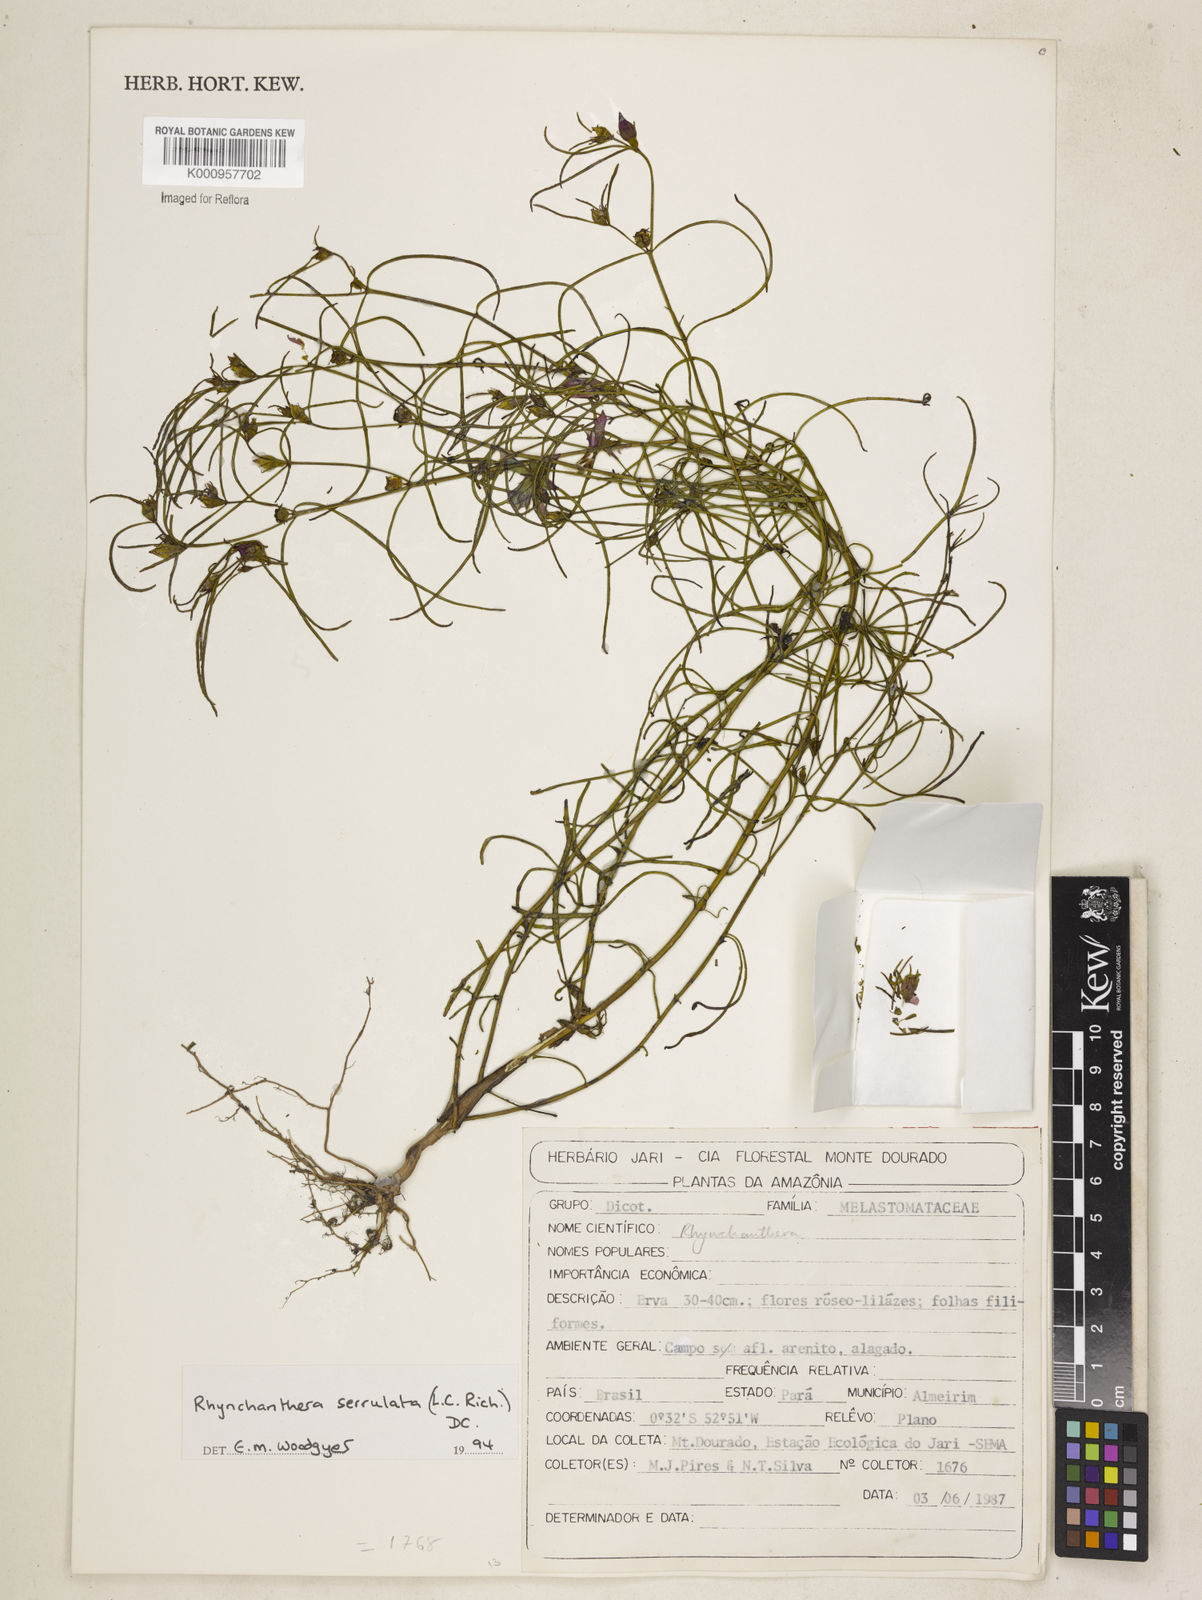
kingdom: Plantae
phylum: Tracheophyta
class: Magnoliopsida
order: Myrtales
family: Melastomataceae
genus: Rhynchanthera
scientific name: Rhynchanthera serrulata
